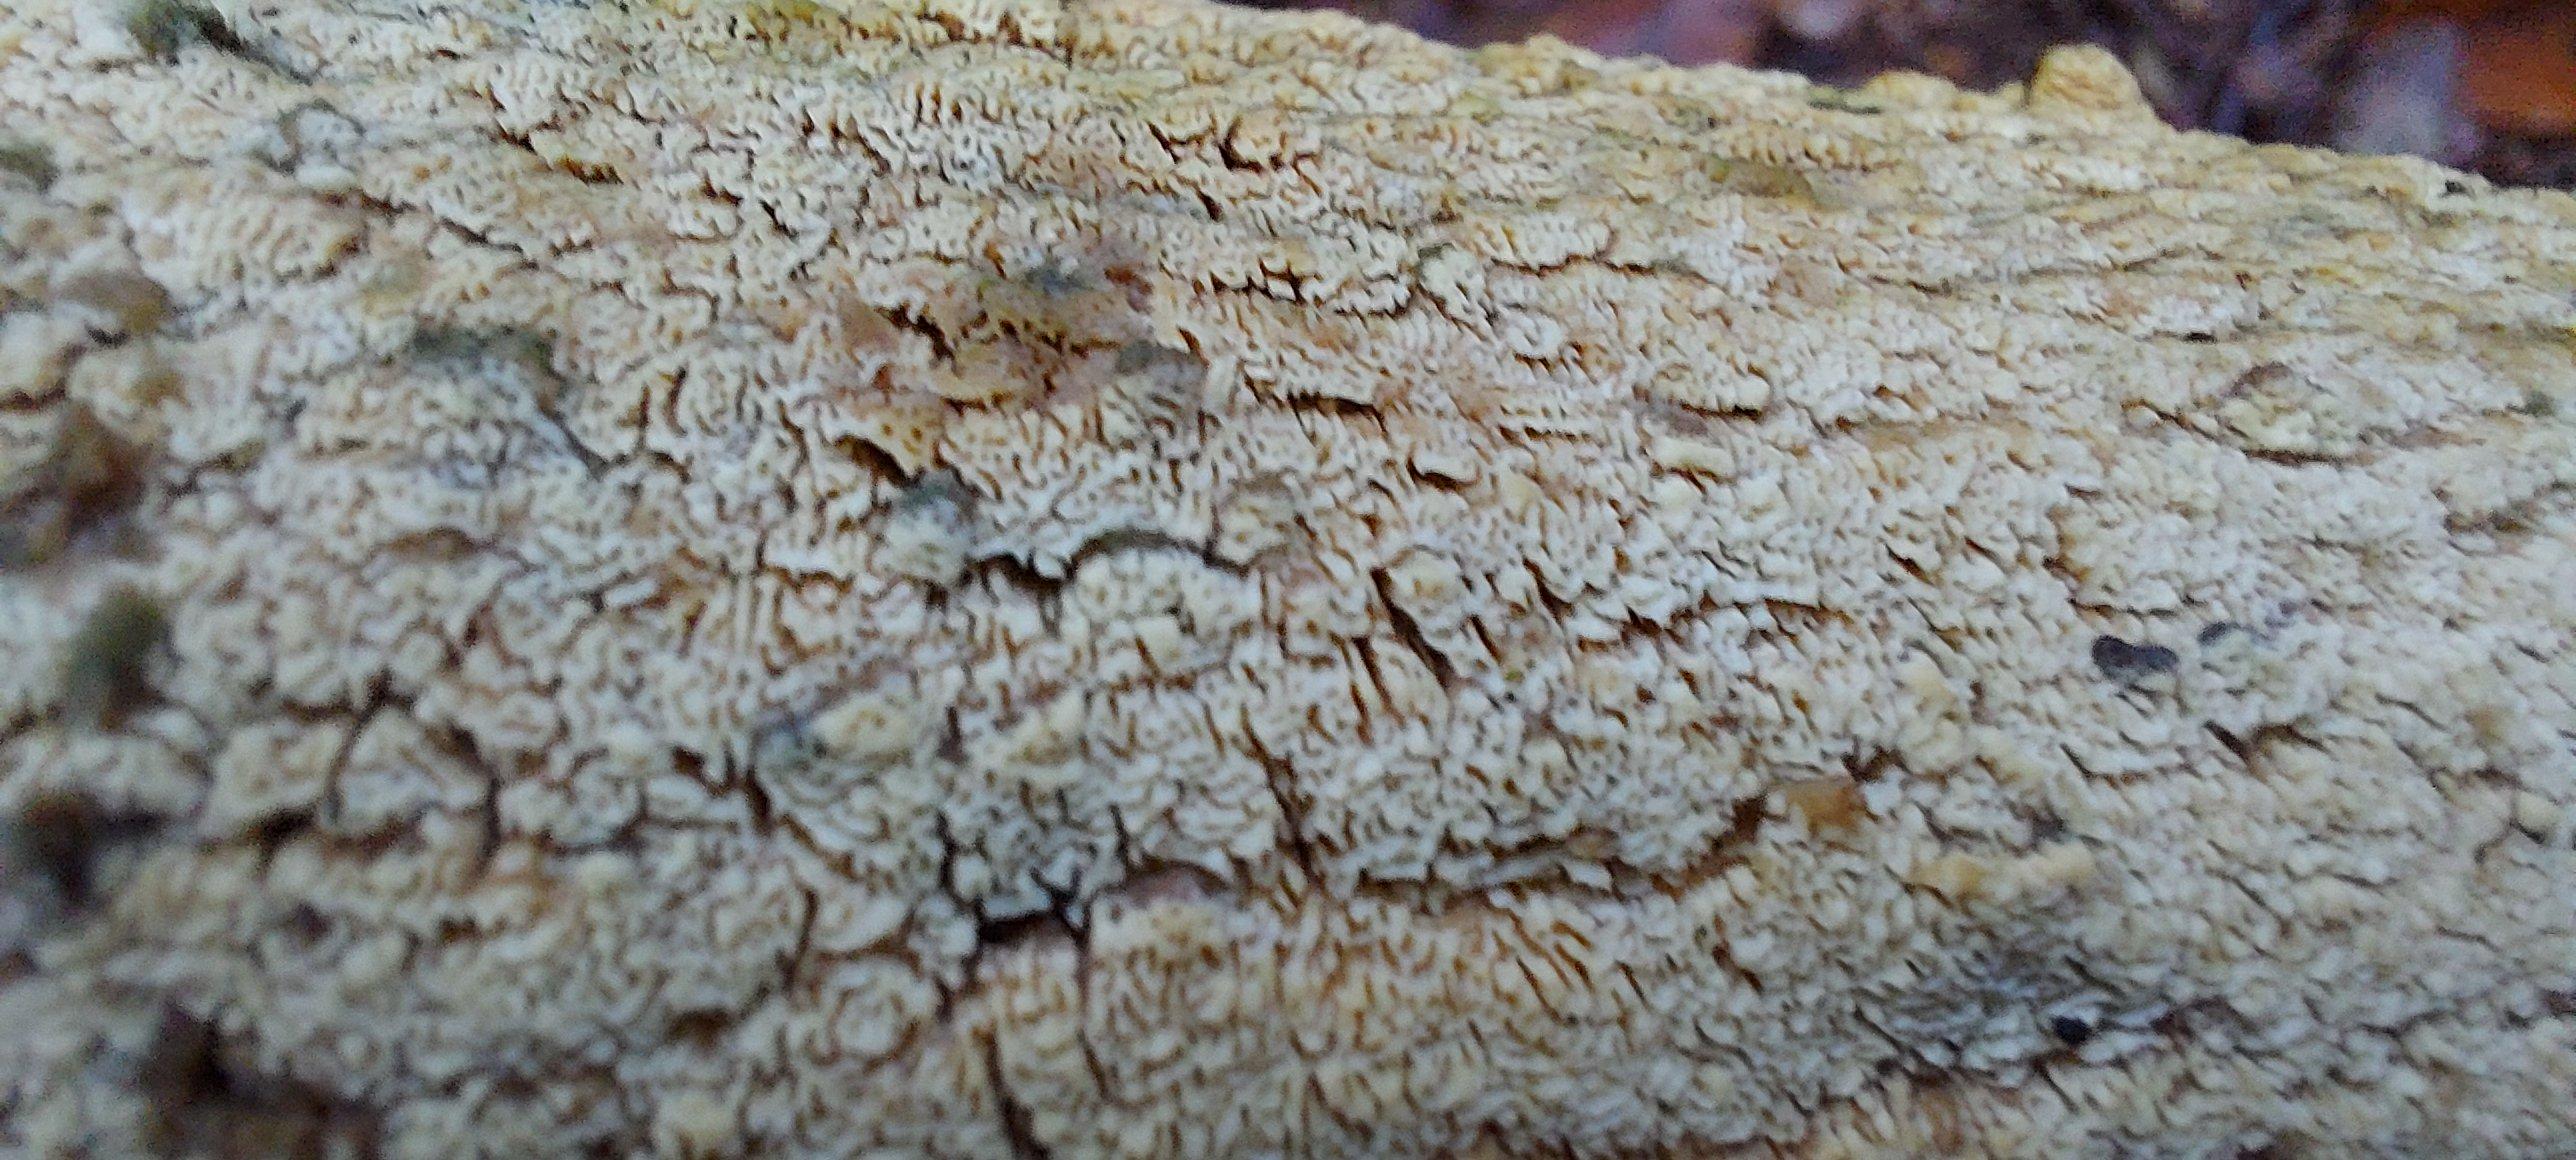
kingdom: Fungi
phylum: Basidiomycota
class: Agaricomycetes
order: Hymenochaetales
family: Schizoporaceae
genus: Xylodon
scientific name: Xylodon subtropicus
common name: labyrint-tandsvamp
